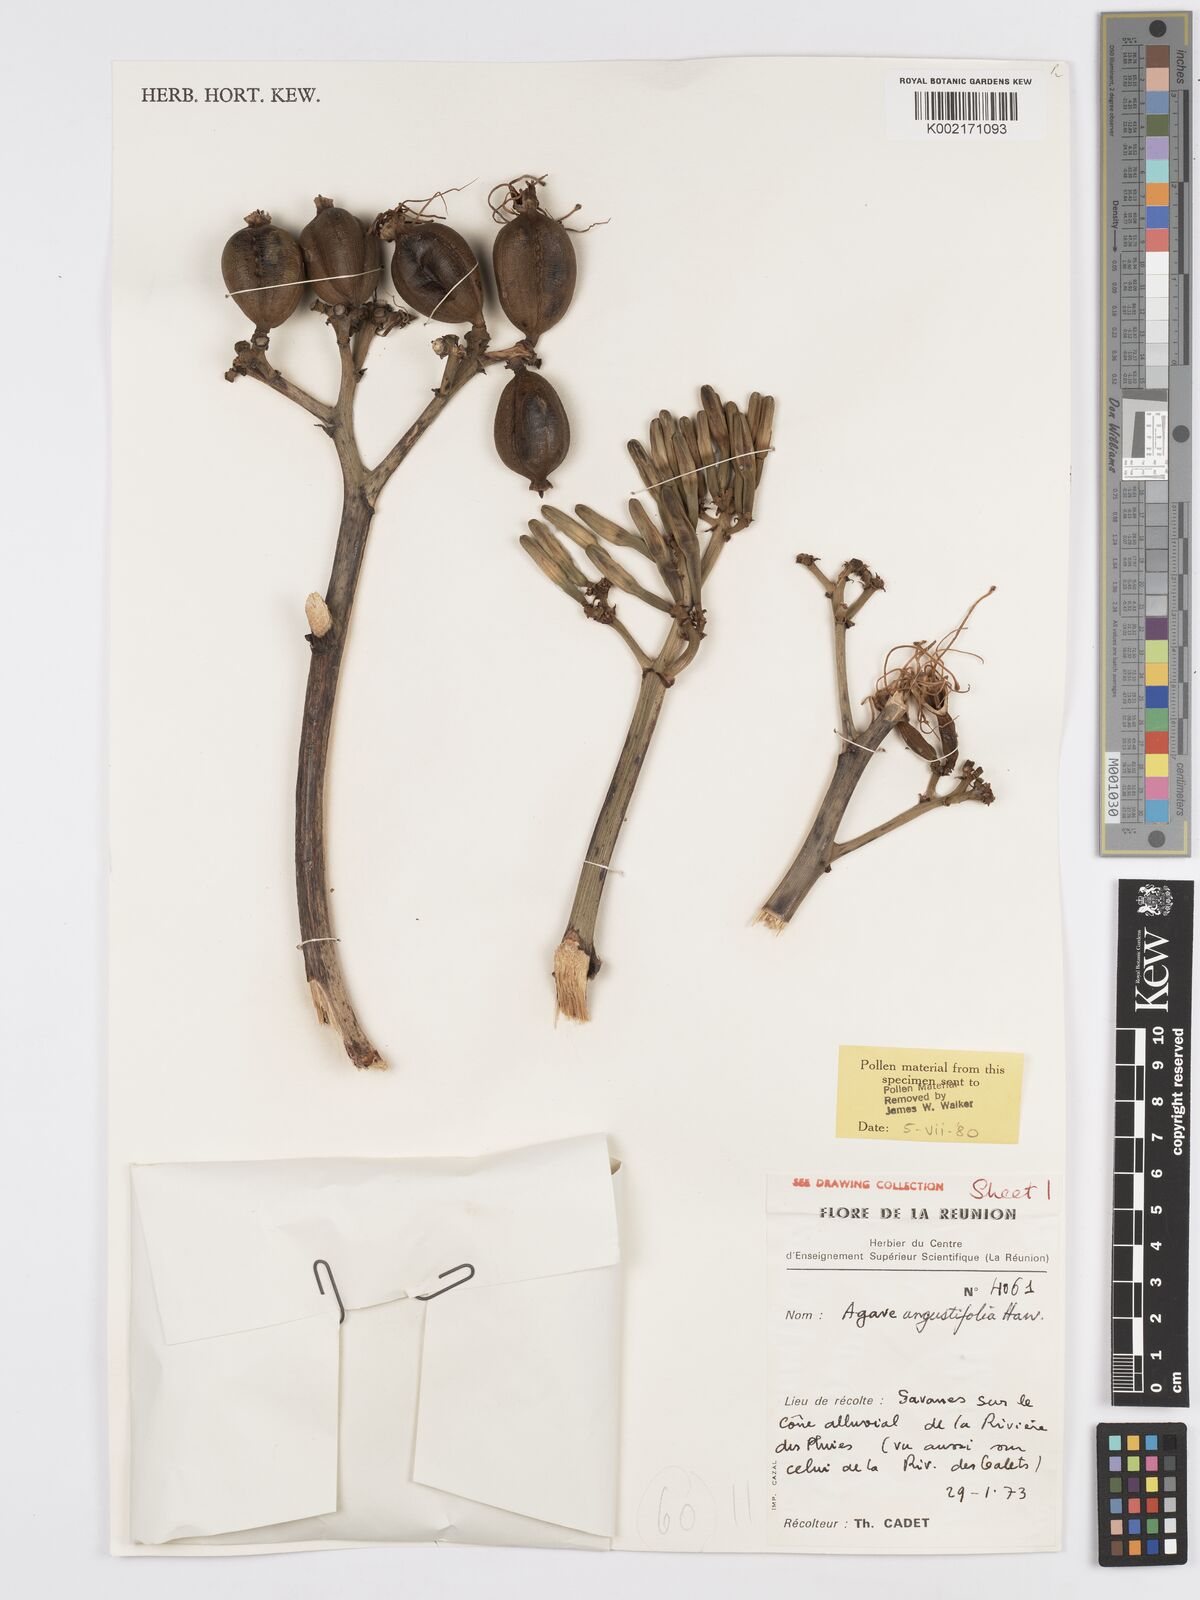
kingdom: Plantae
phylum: Tracheophyta
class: Liliopsida
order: Asparagales
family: Asparagaceae
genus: Agave
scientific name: Agave angustifolia
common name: Mescal agave
